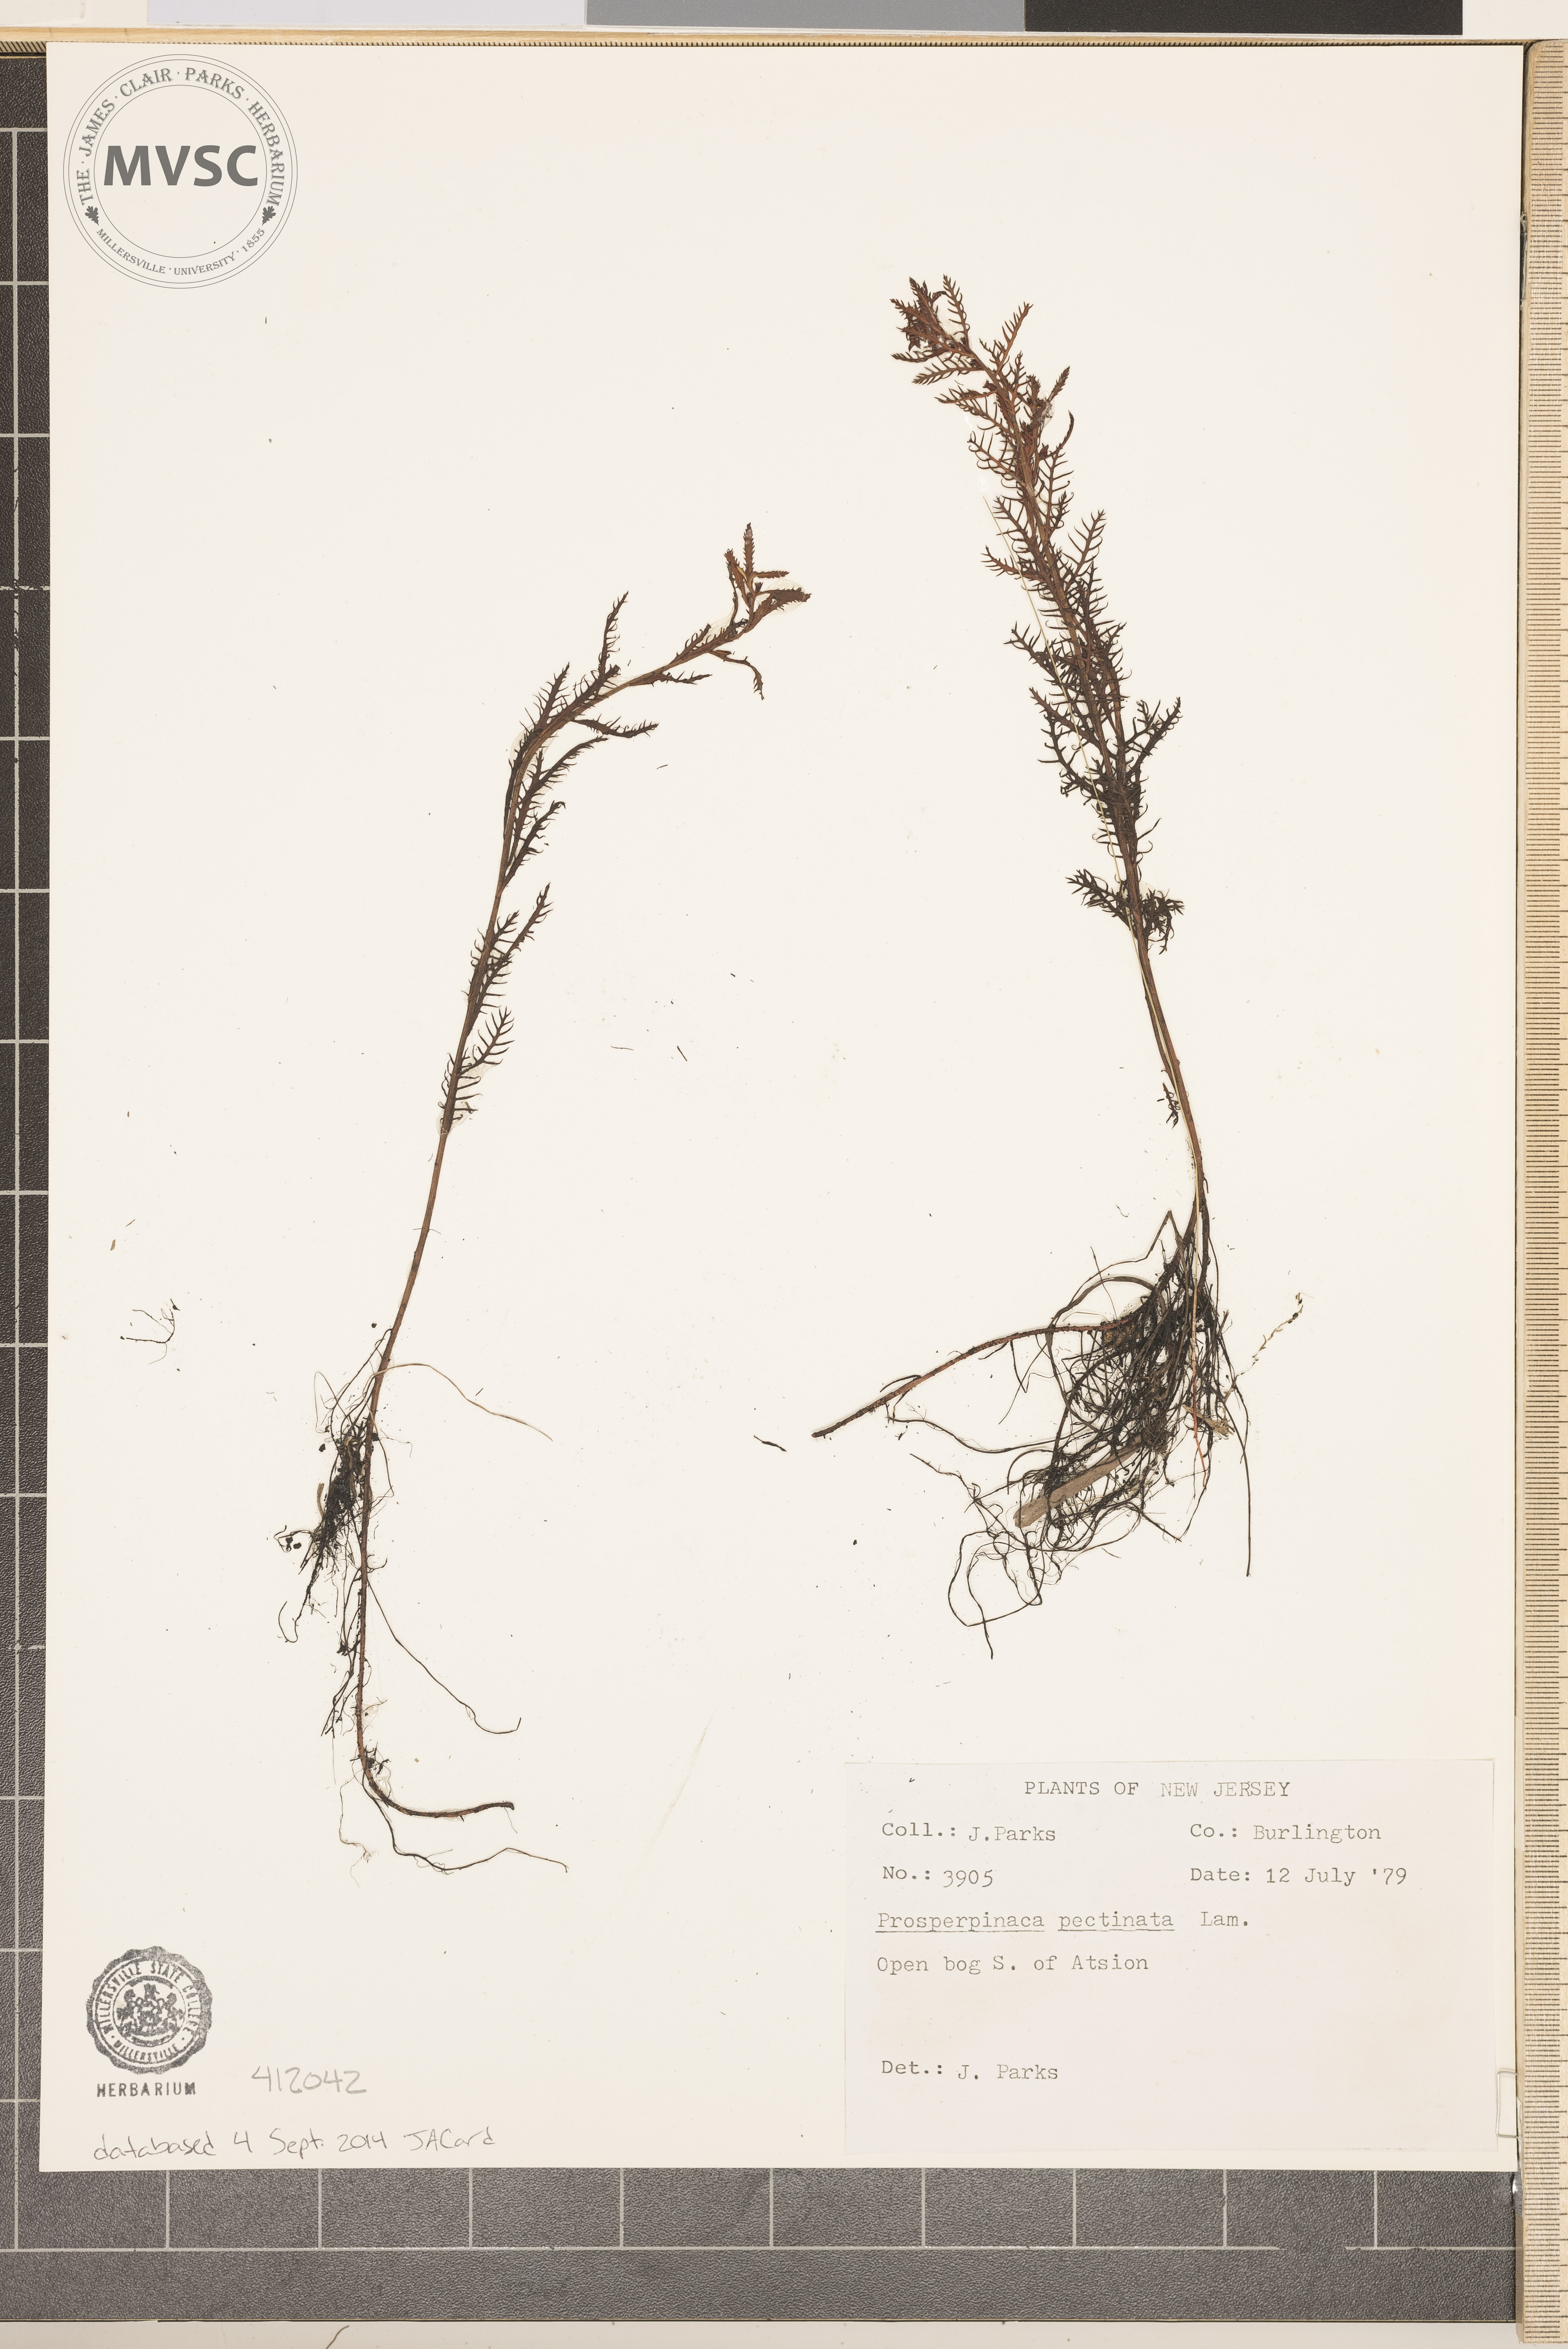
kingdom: Plantae
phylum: Tracheophyta
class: Magnoliopsida
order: Saxifragales
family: Haloragaceae
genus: Proserpinaca
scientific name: Proserpinaca pectinata
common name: Comb-leaved mermaidweed
